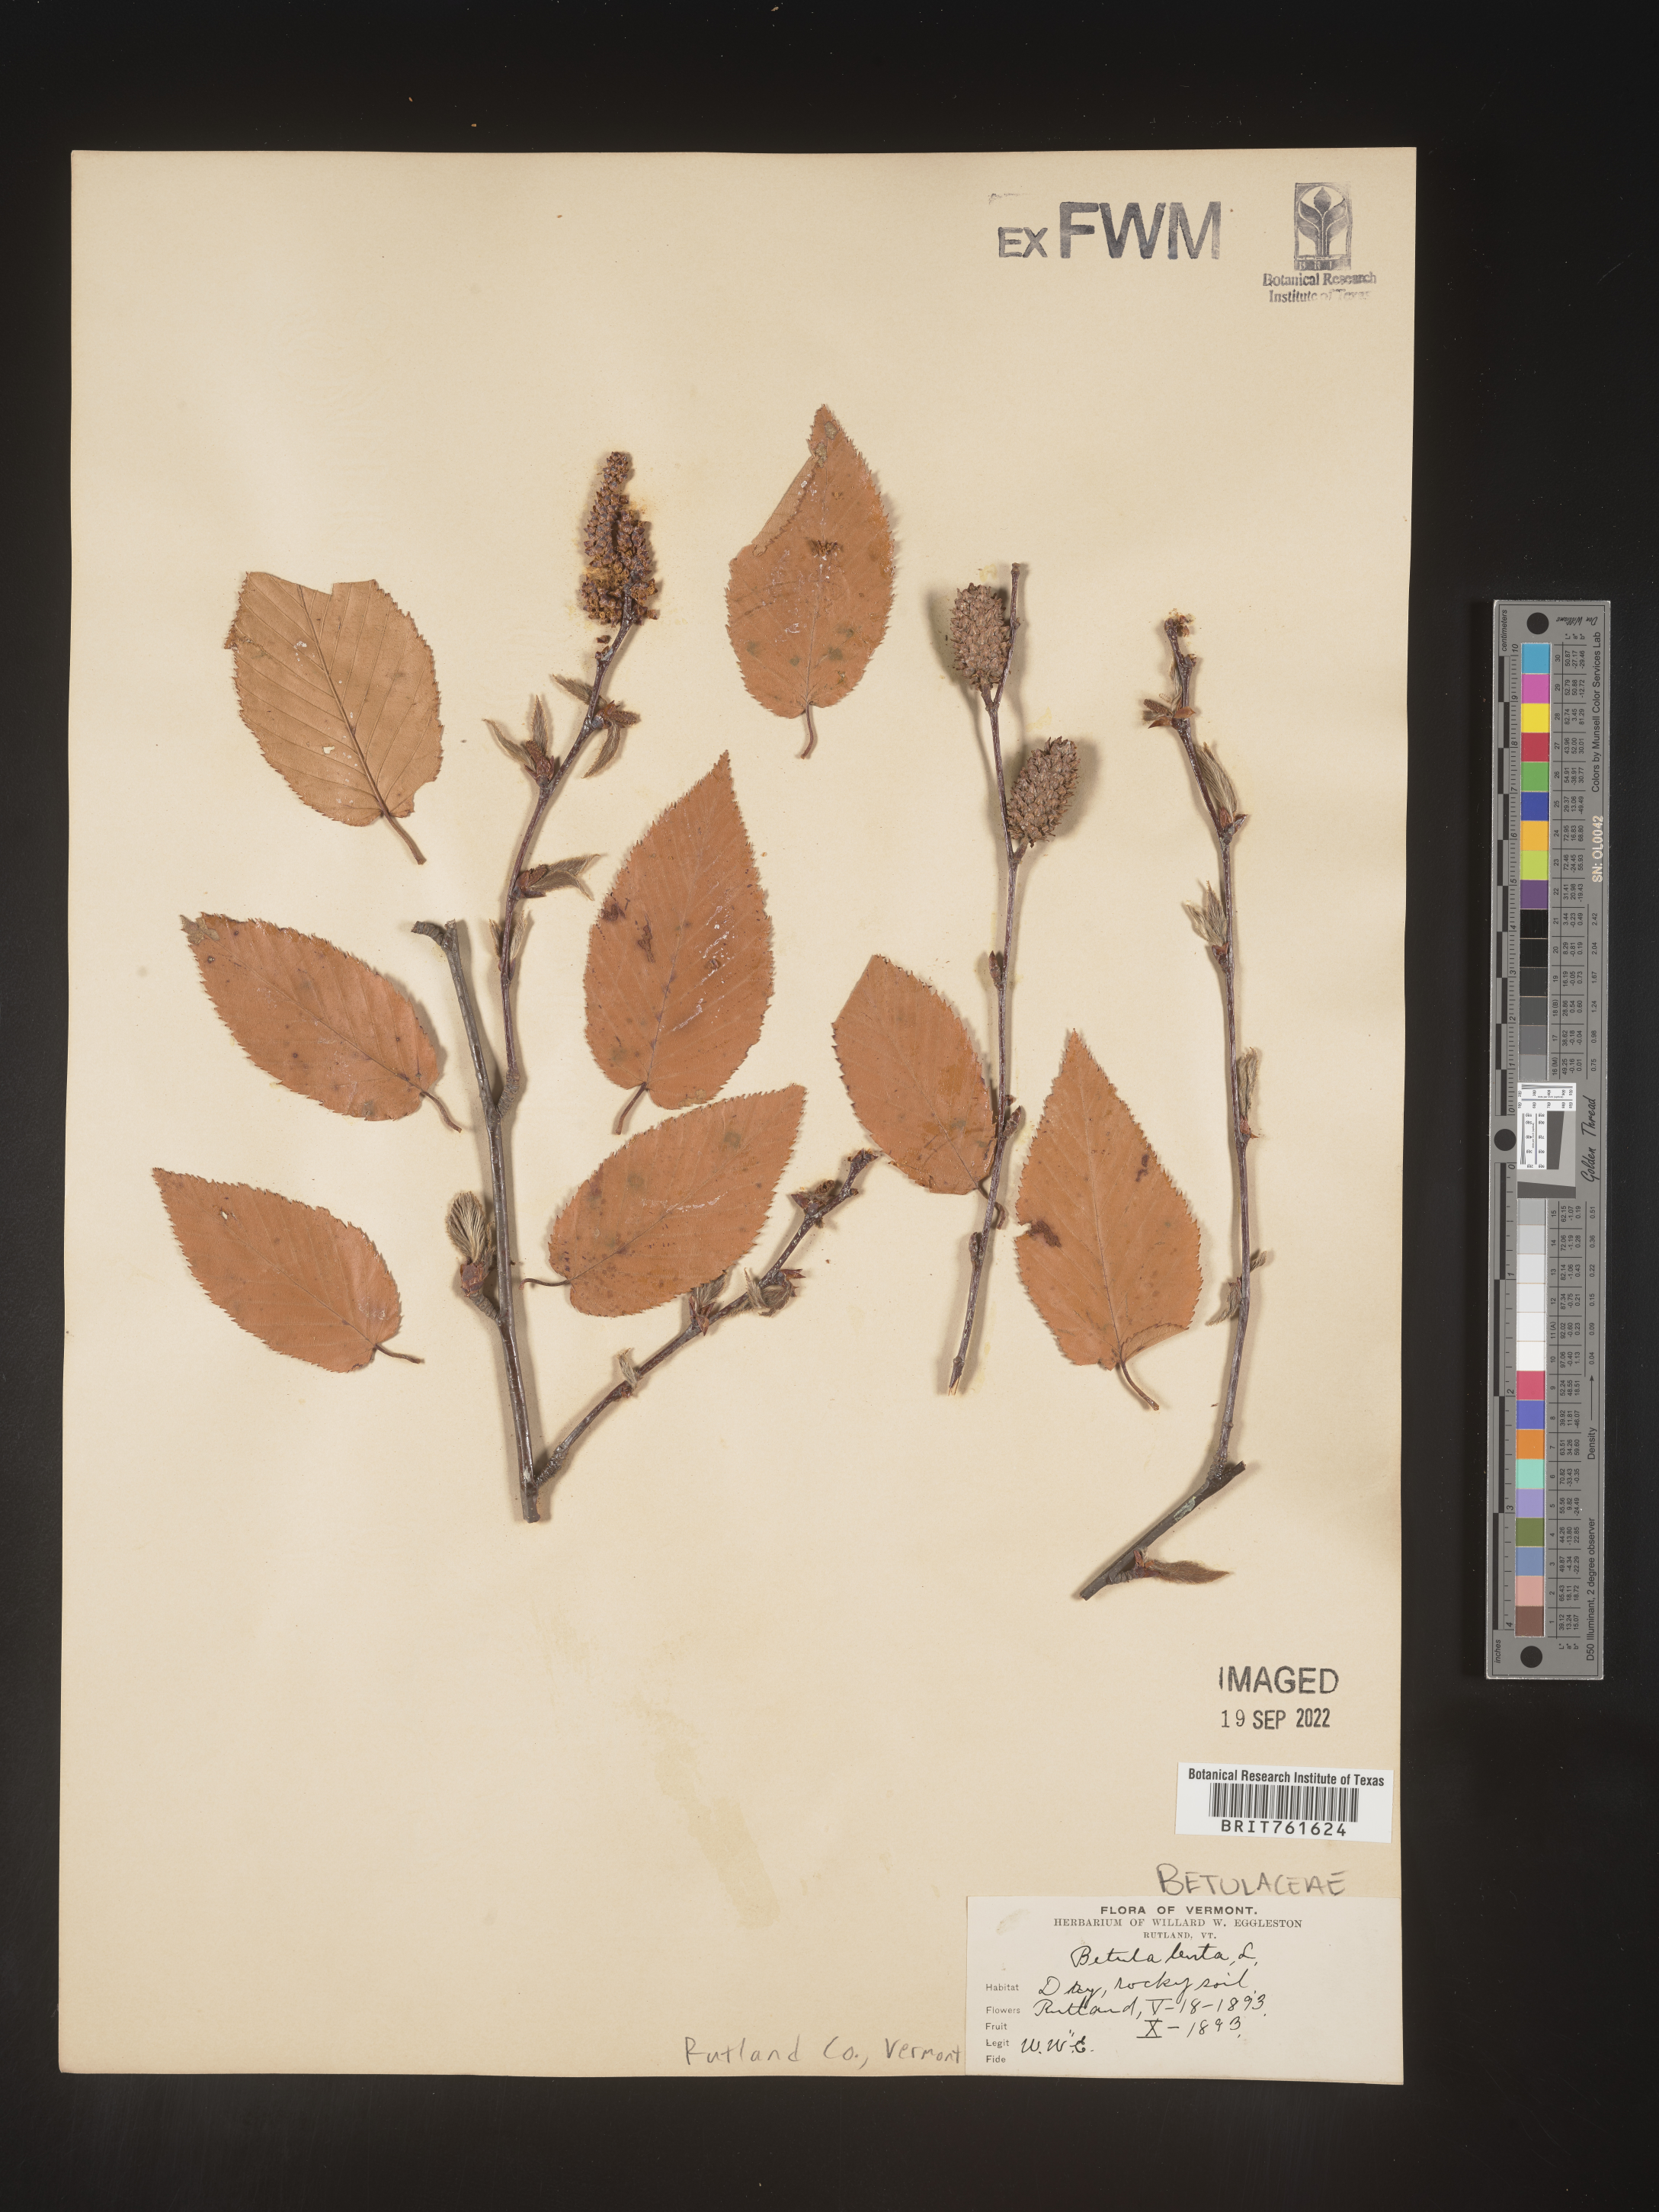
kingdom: Plantae
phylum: Tracheophyta
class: Magnoliopsida
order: Fagales
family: Betulaceae
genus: Betula
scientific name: Betula lenta
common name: Black birch
